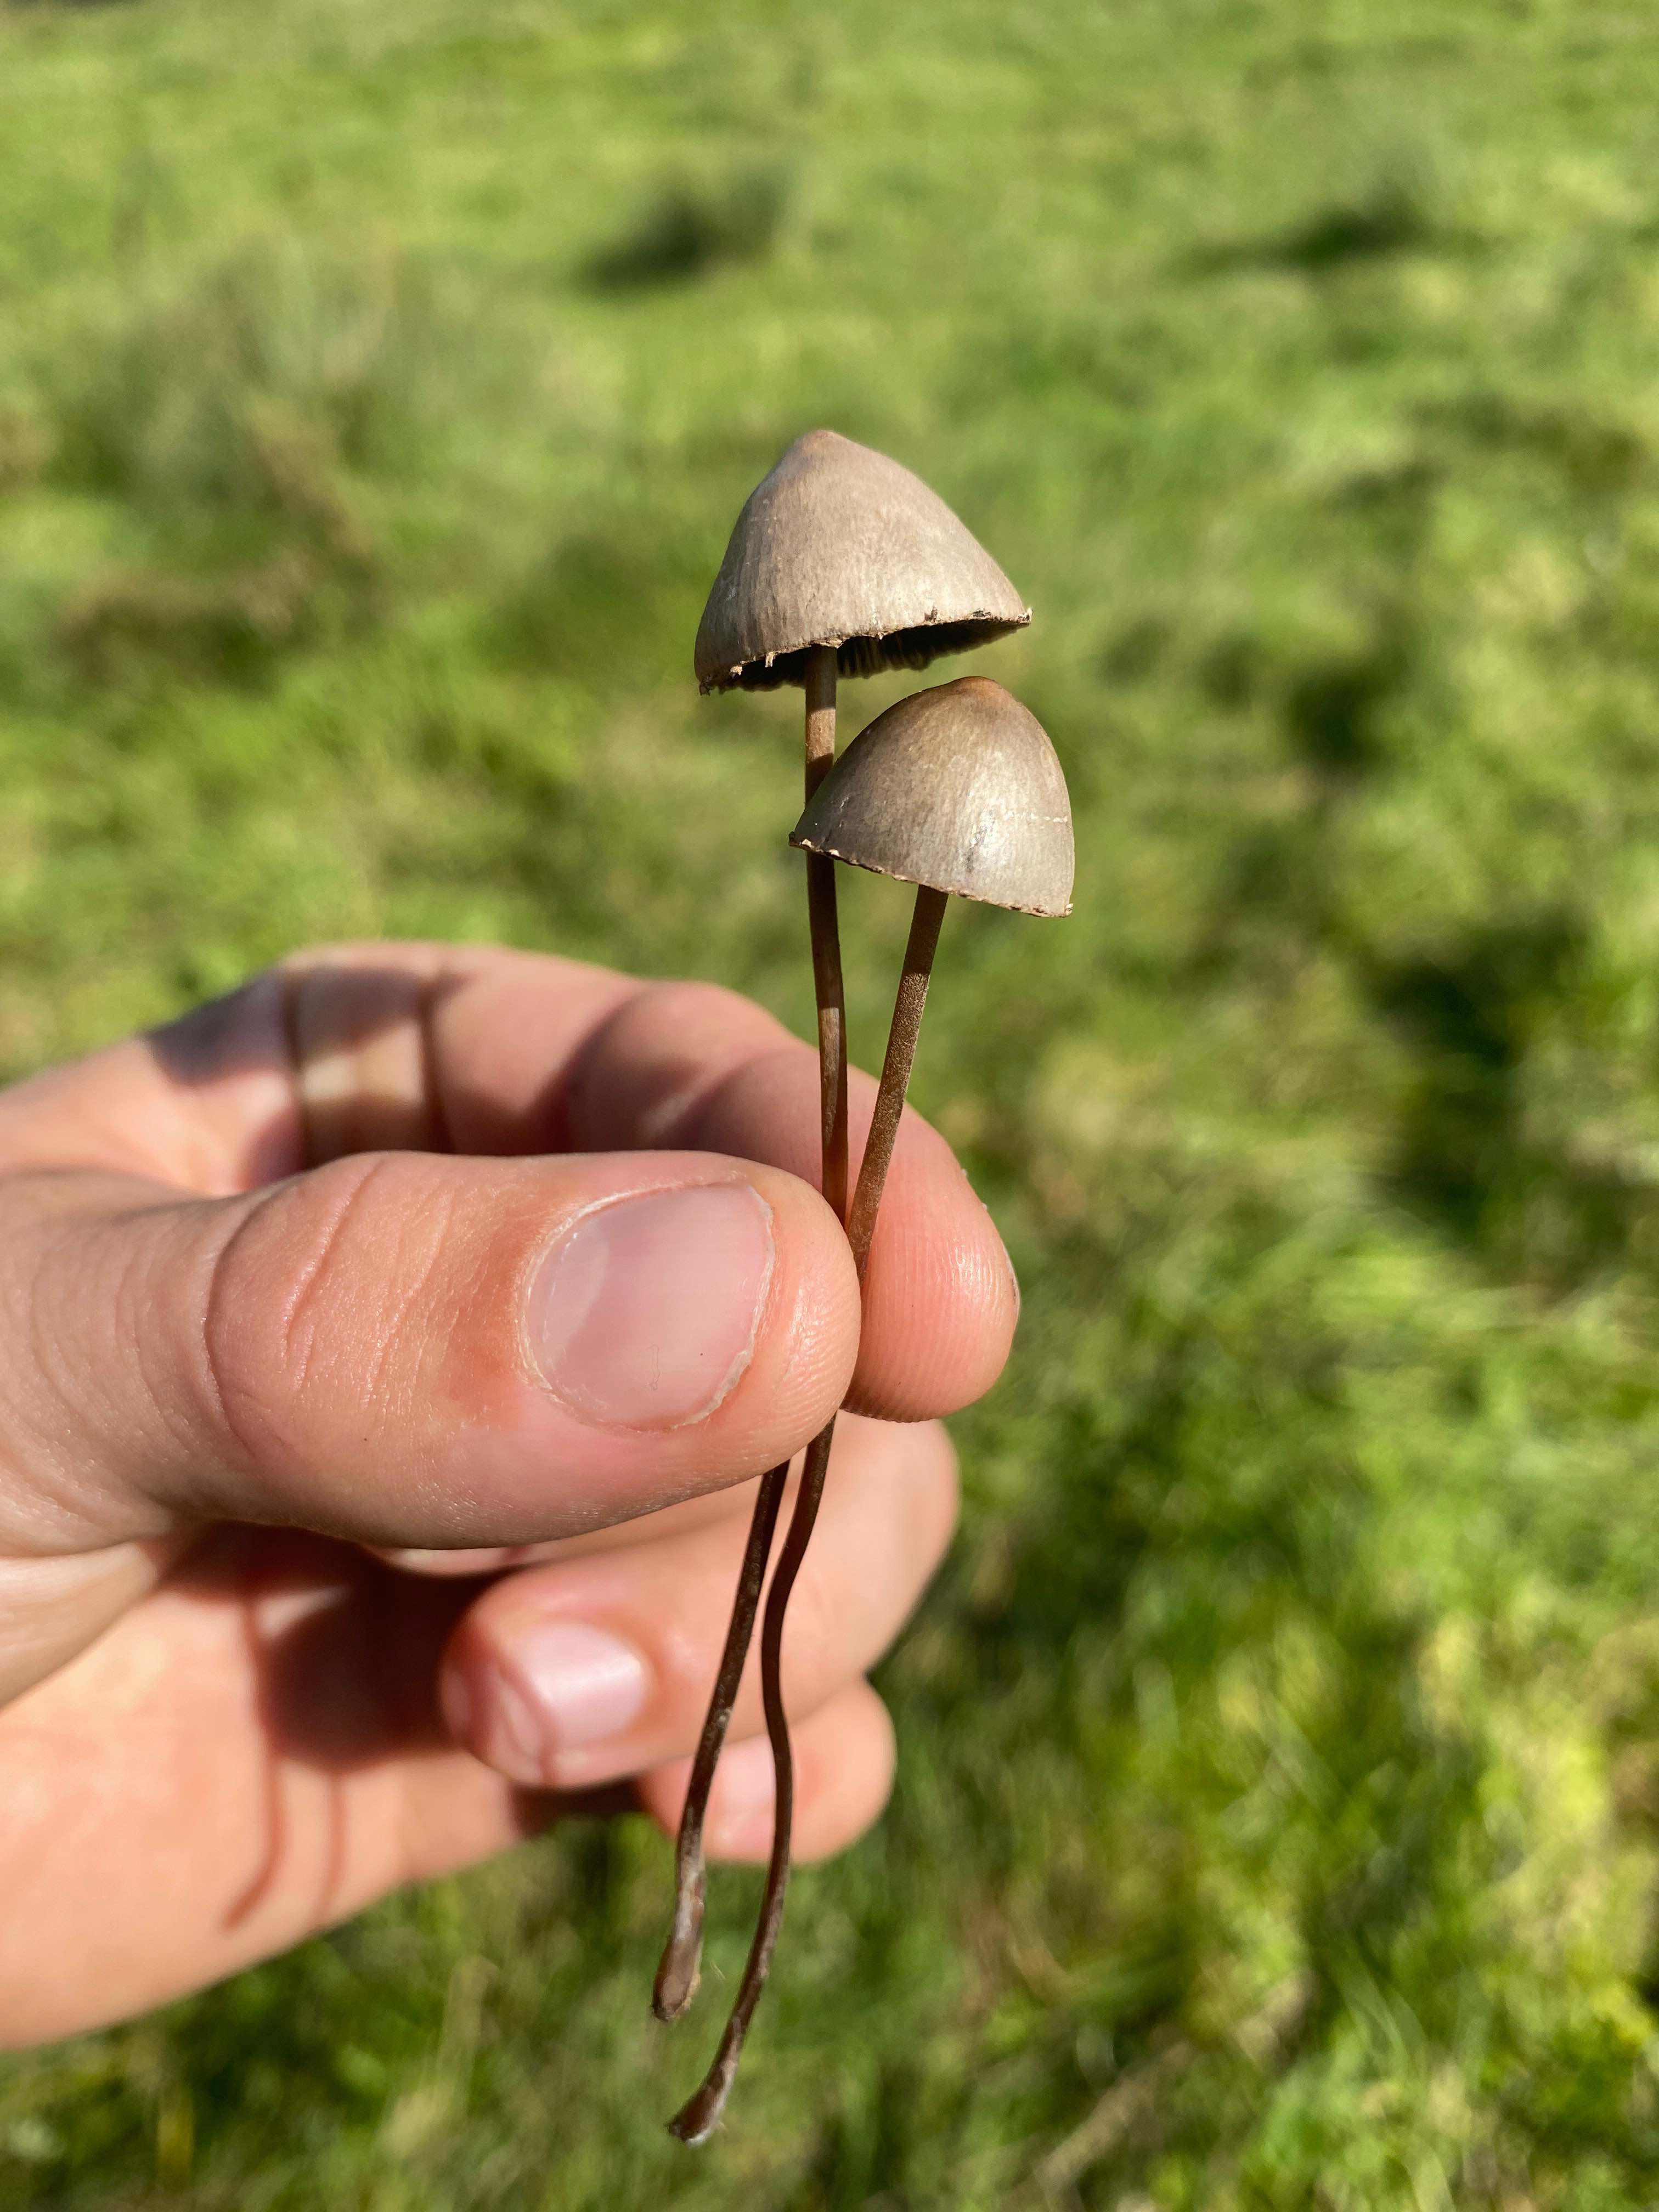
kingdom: Fungi
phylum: Basidiomycota
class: Agaricomycetes
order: Agaricales
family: Bolbitiaceae
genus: Panaeolus
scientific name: Panaeolus papilionaceus
